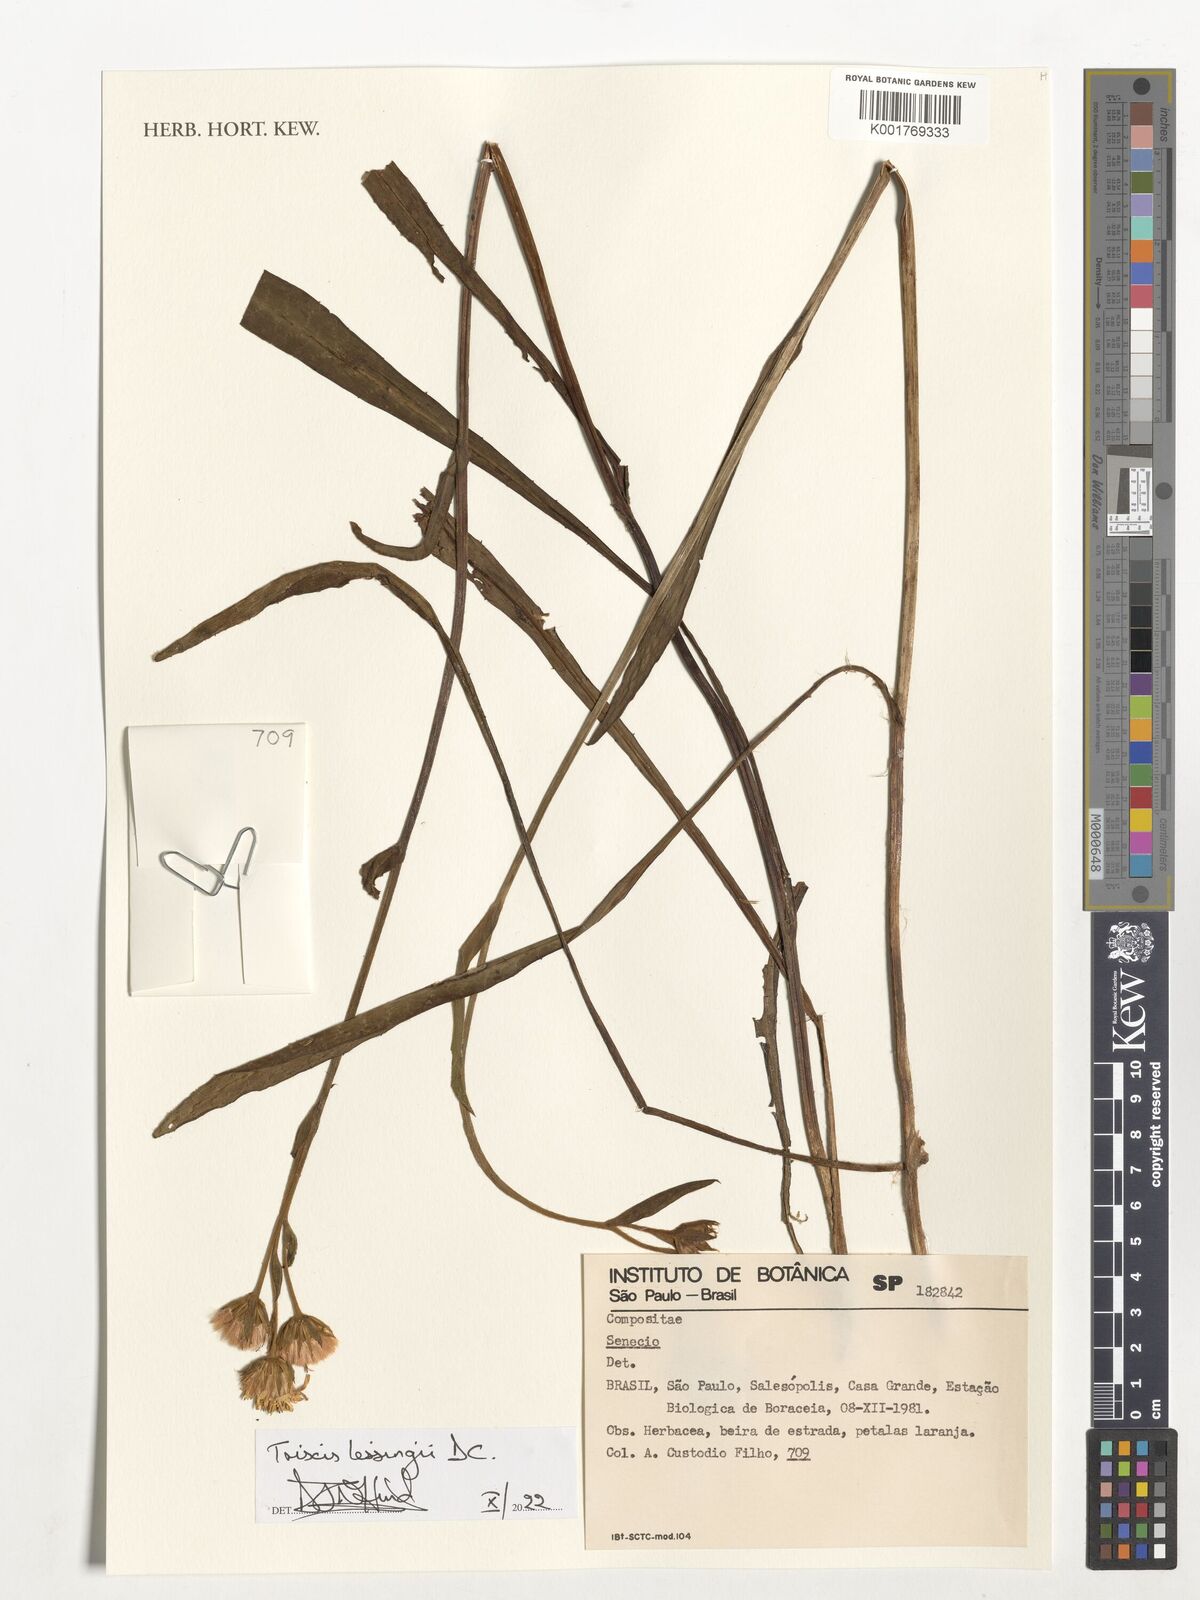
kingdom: Plantae
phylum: Tracheophyta
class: Magnoliopsida
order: Asterales
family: Asteraceae
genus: Trixis
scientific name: Trixis lessingii
